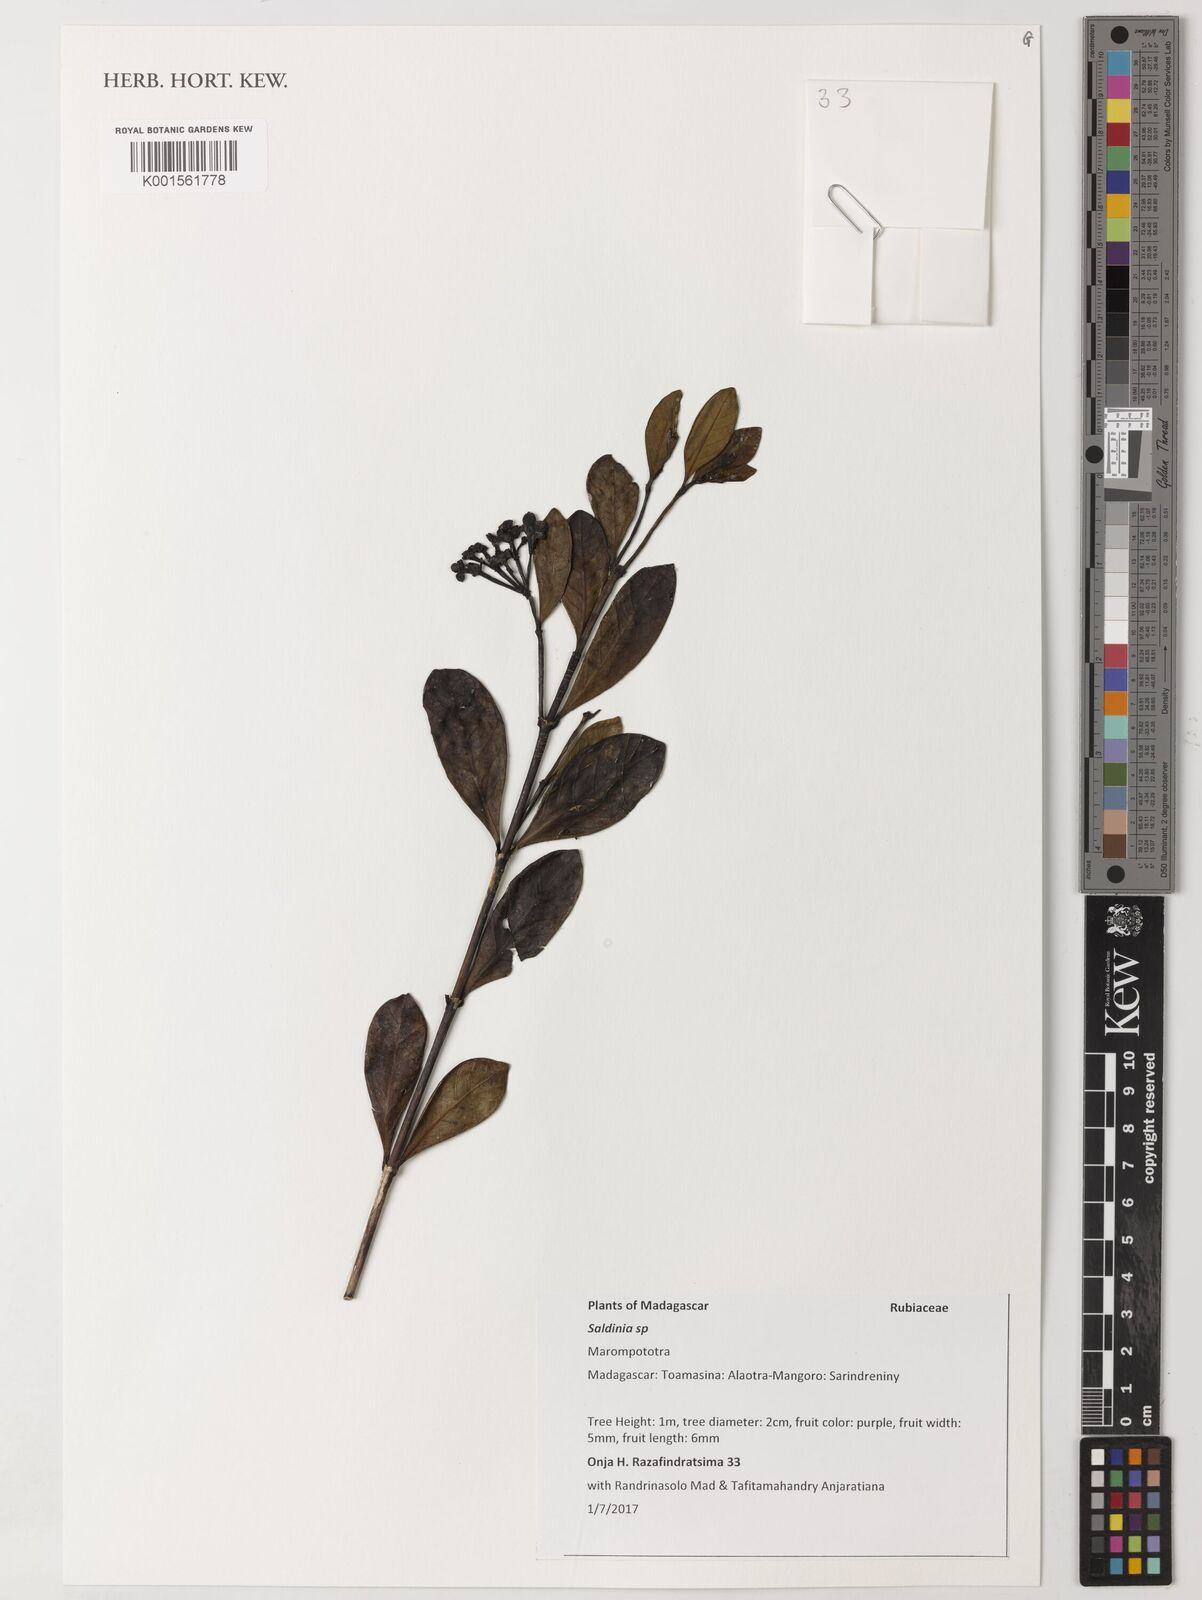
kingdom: Plantae
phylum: Tracheophyta
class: Magnoliopsida
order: Gentianales
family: Rubiaceae
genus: Saldinia
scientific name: Saldinia
